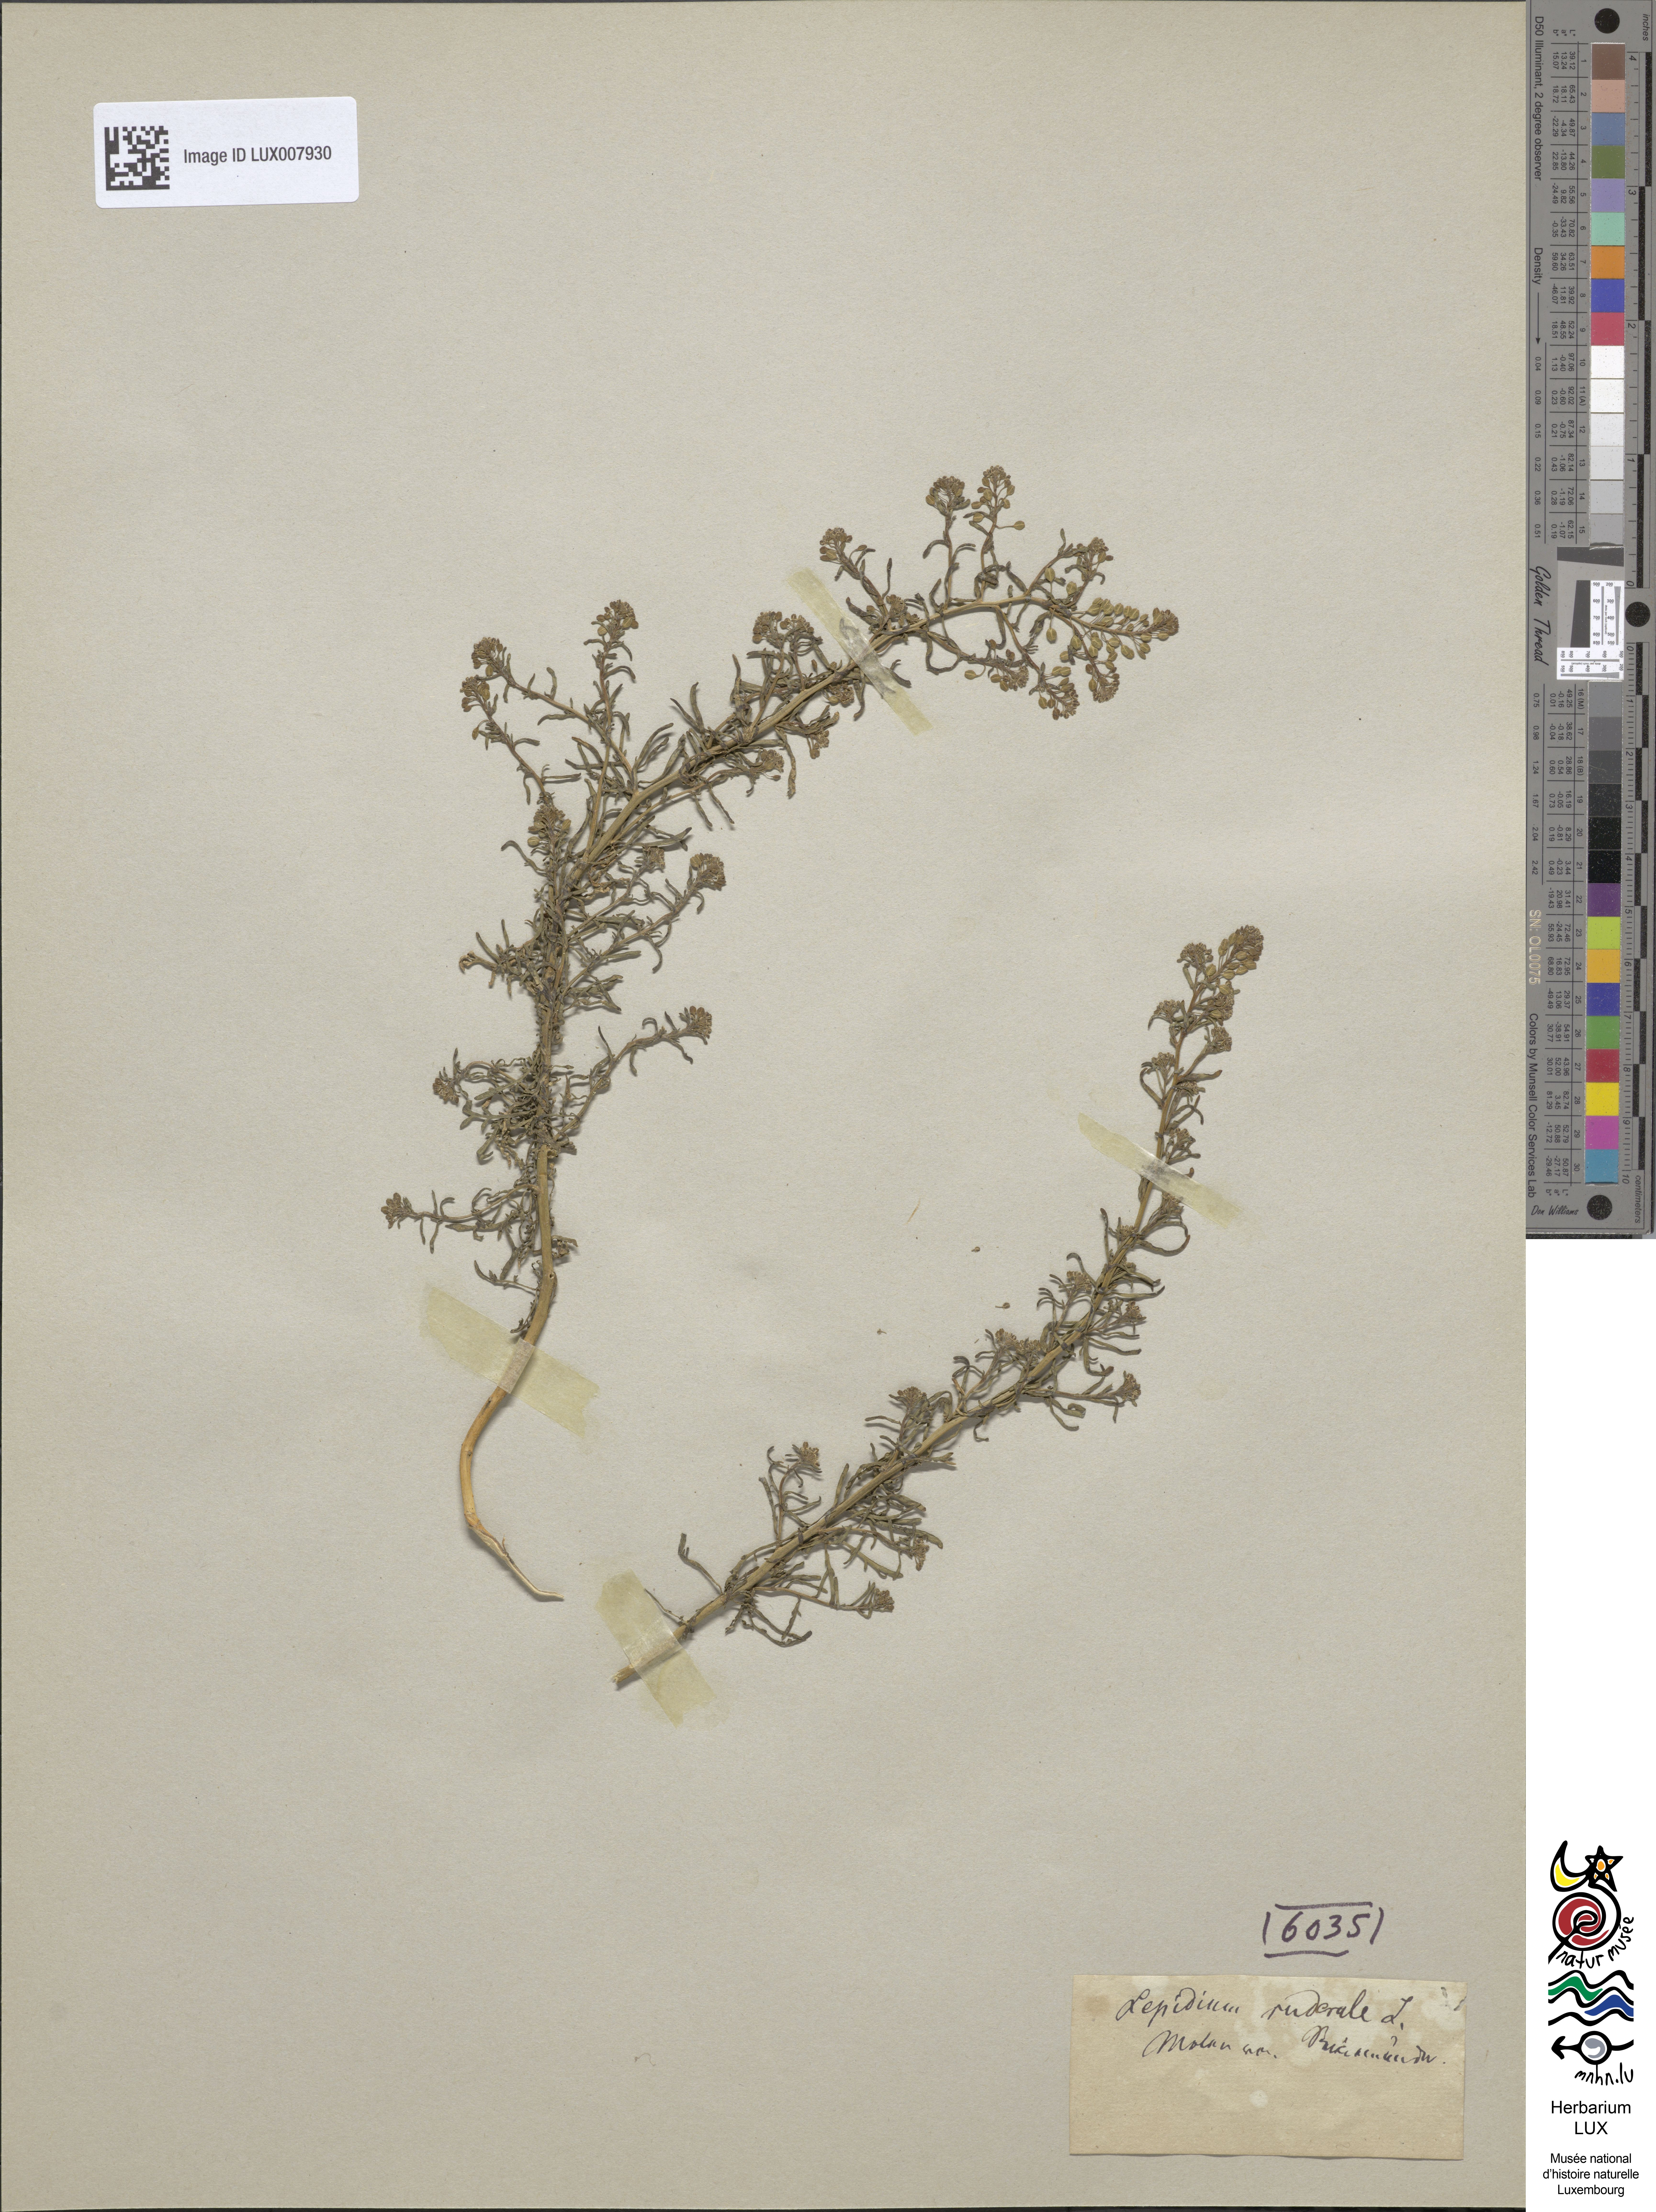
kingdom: Plantae
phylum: Tracheophyta
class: Magnoliopsida
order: Brassicales
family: Brassicaceae
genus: Lepidium
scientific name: Lepidium ruderale
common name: Narrow-leaved pepperwort
